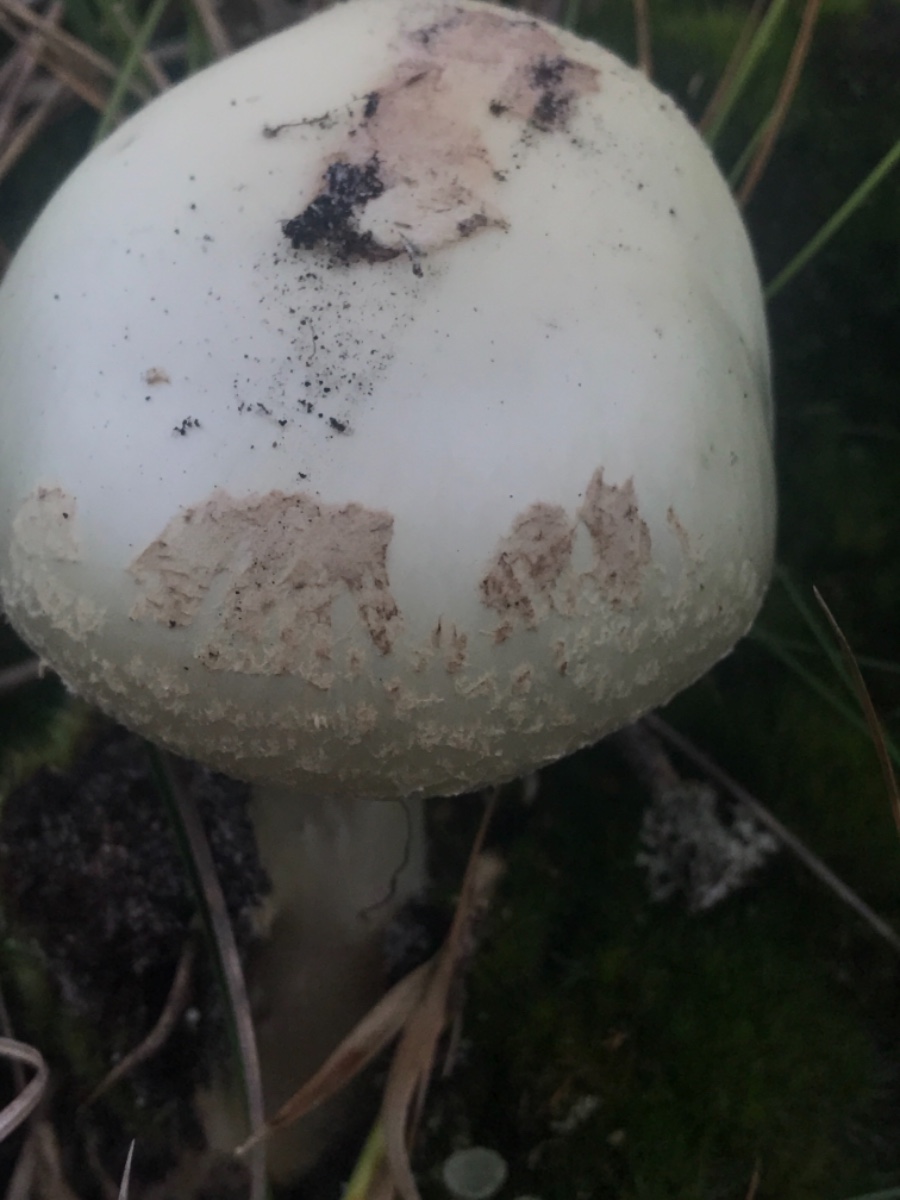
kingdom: Fungi
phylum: Basidiomycota
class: Agaricomycetes
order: Agaricales
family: Amanitaceae
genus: Amanita
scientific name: Amanita citrina
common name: kugleknoldet fluesvamp
